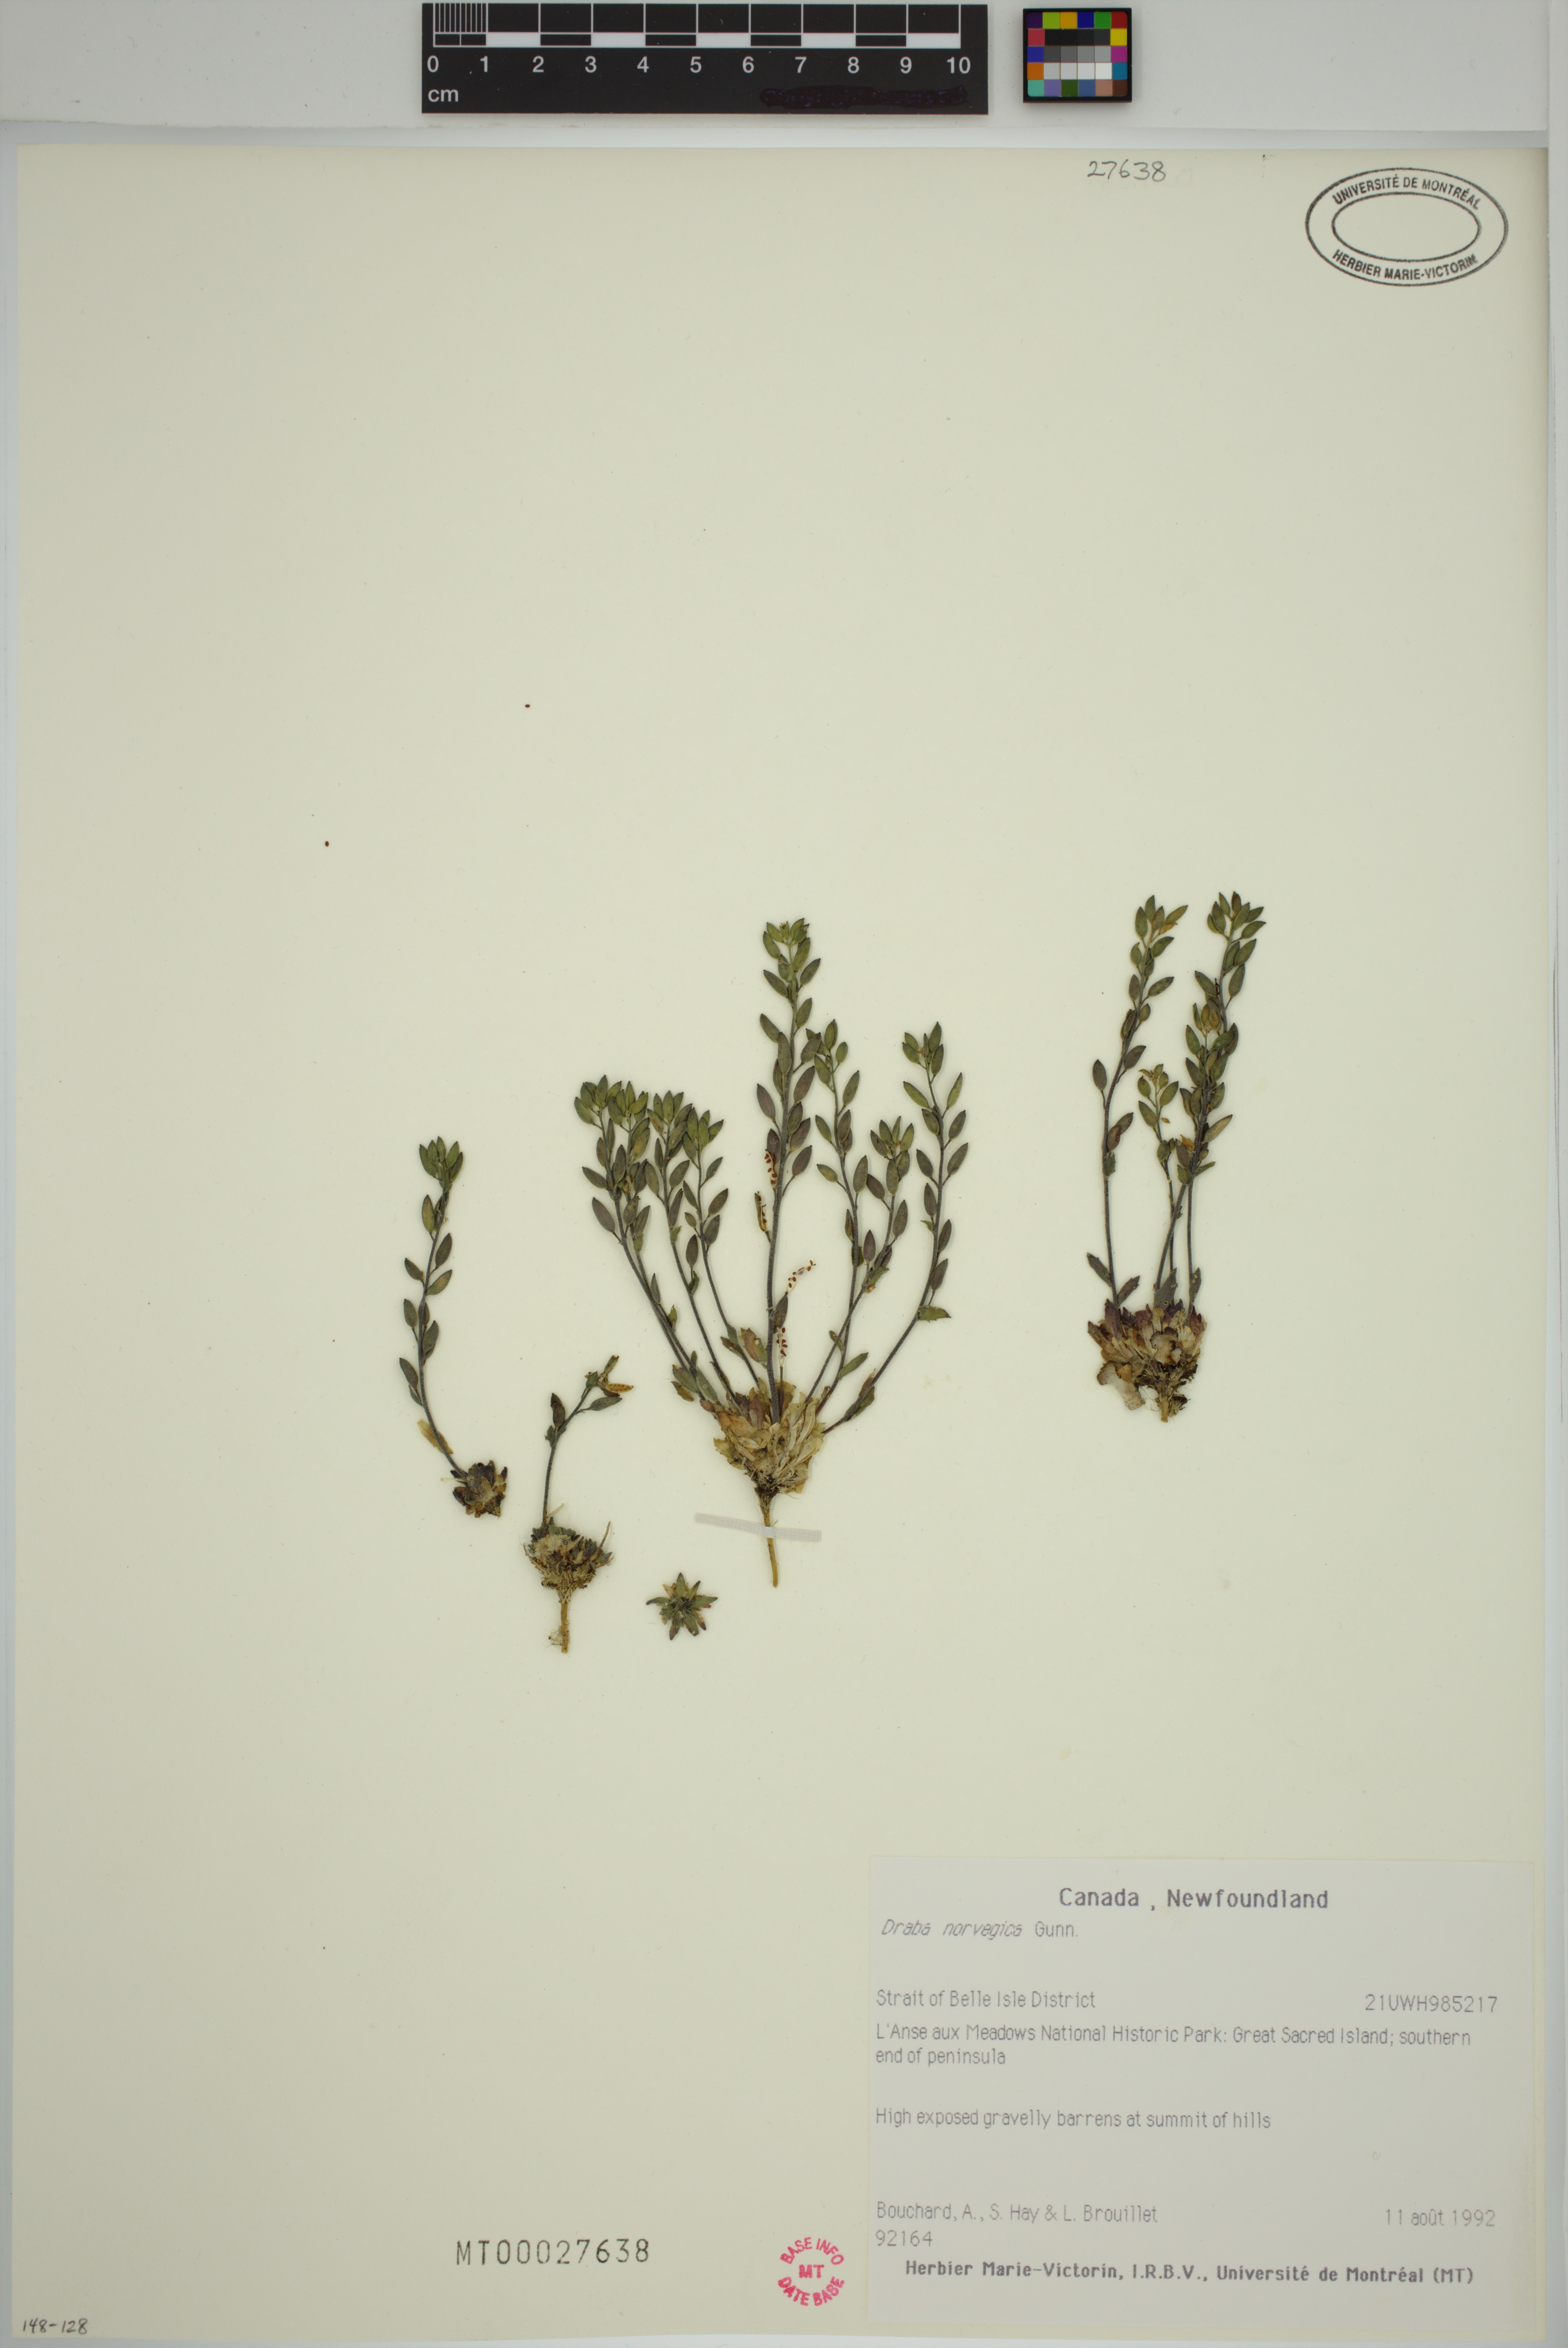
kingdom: Plantae
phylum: Tracheophyta
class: Magnoliopsida
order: Brassicales
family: Brassicaceae
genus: Draba
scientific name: Draba norvegica
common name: Rock whitlowgrass
